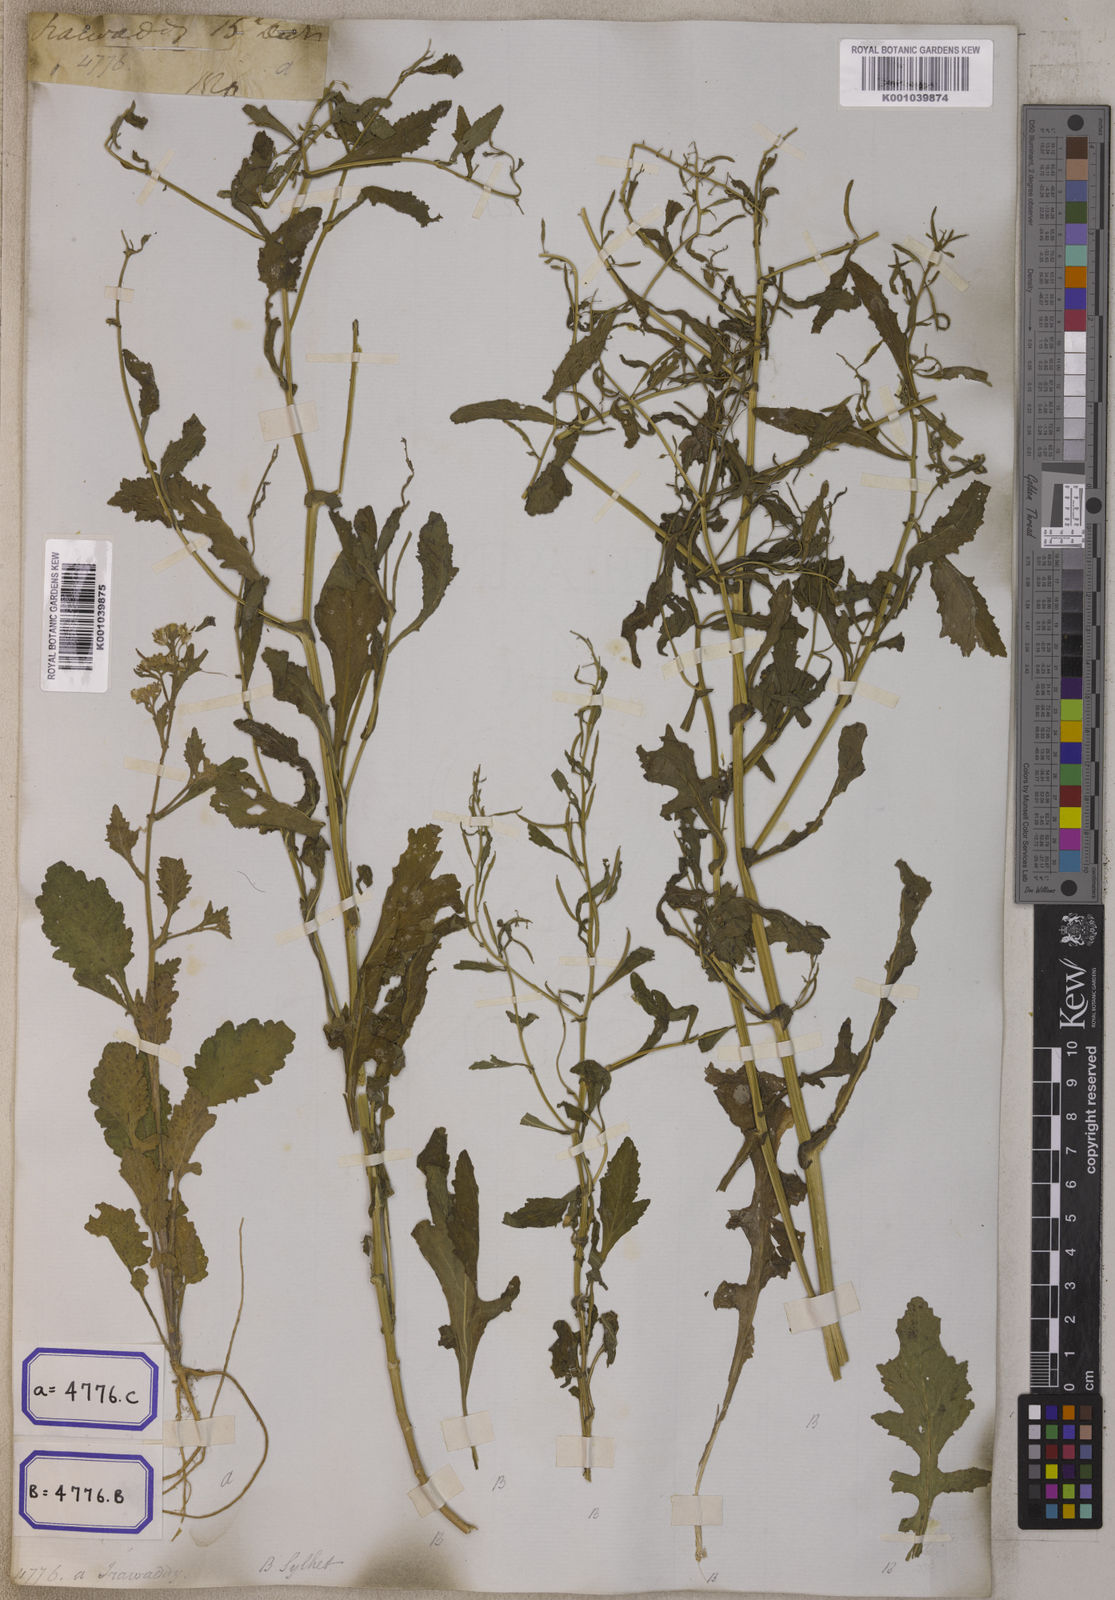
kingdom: Plantae
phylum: Tracheophyta
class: Magnoliopsida
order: Brassicales
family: Brassicaceae
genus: Rorippa
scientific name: Rorippa indica
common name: Variableleaf yellowcress
